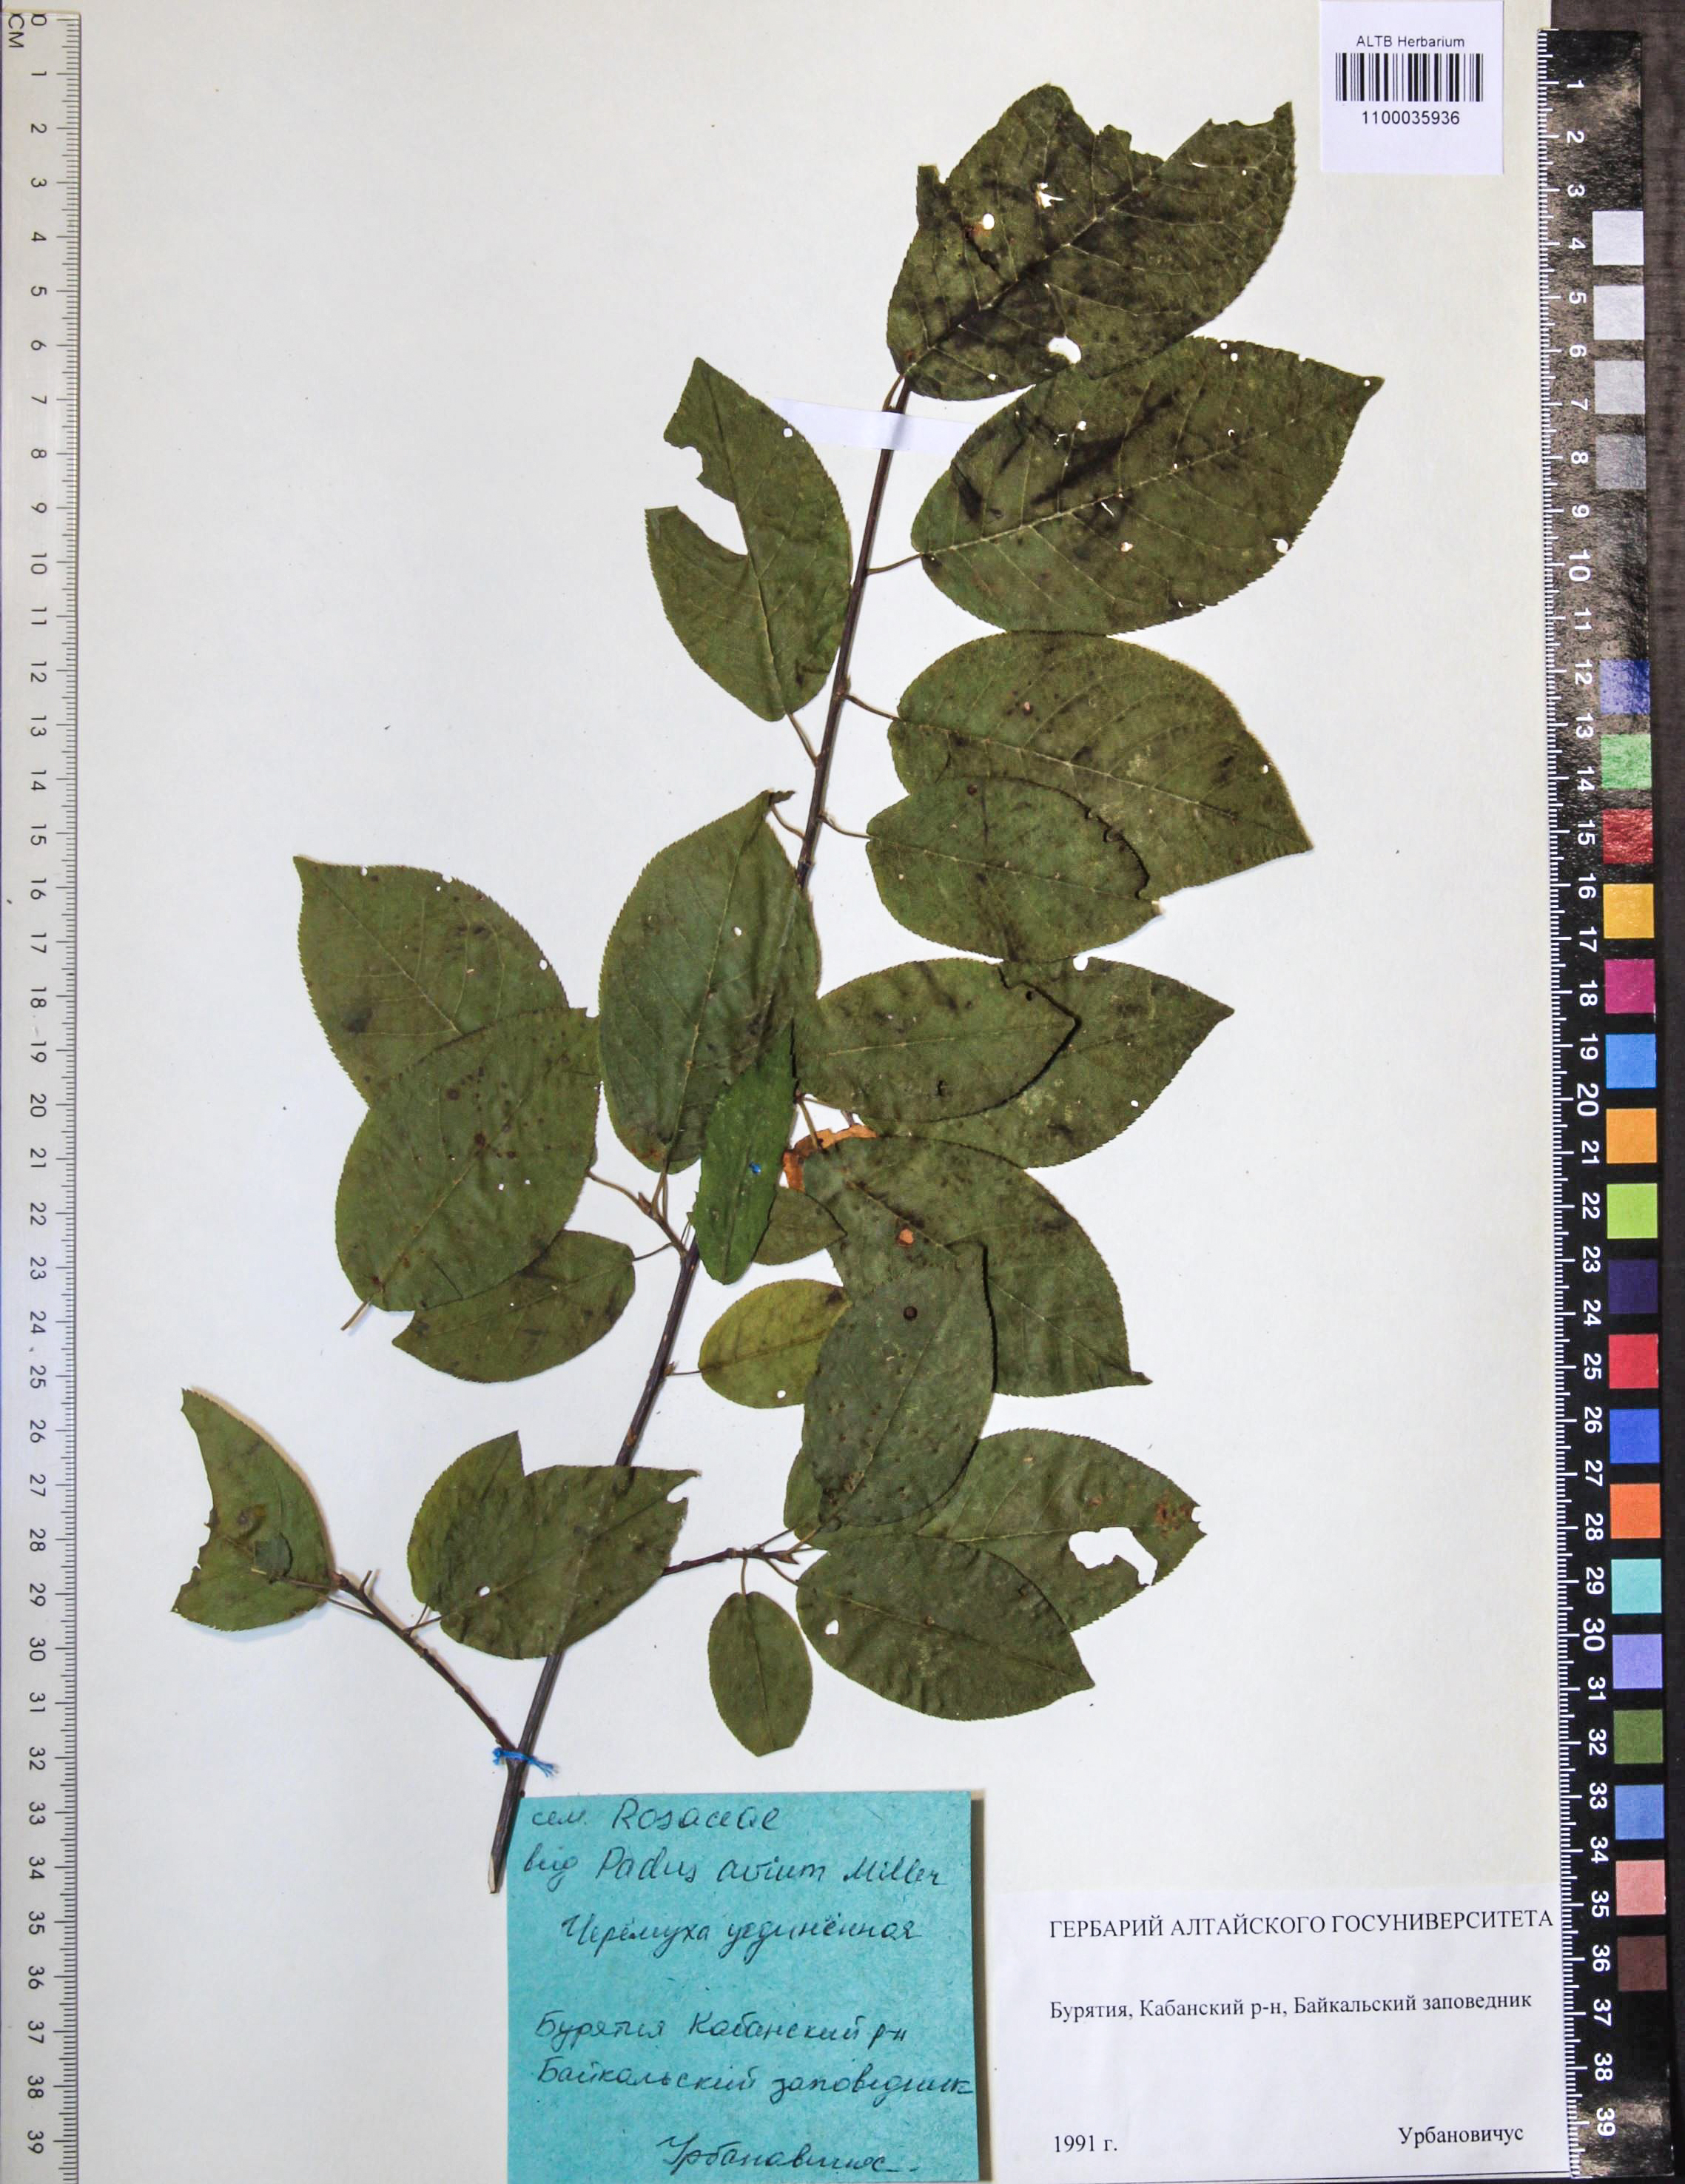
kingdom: Plantae
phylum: Tracheophyta
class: Magnoliopsida
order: Rosales
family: Rosaceae
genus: Prunus
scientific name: Prunus padus
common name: Bird cherry
